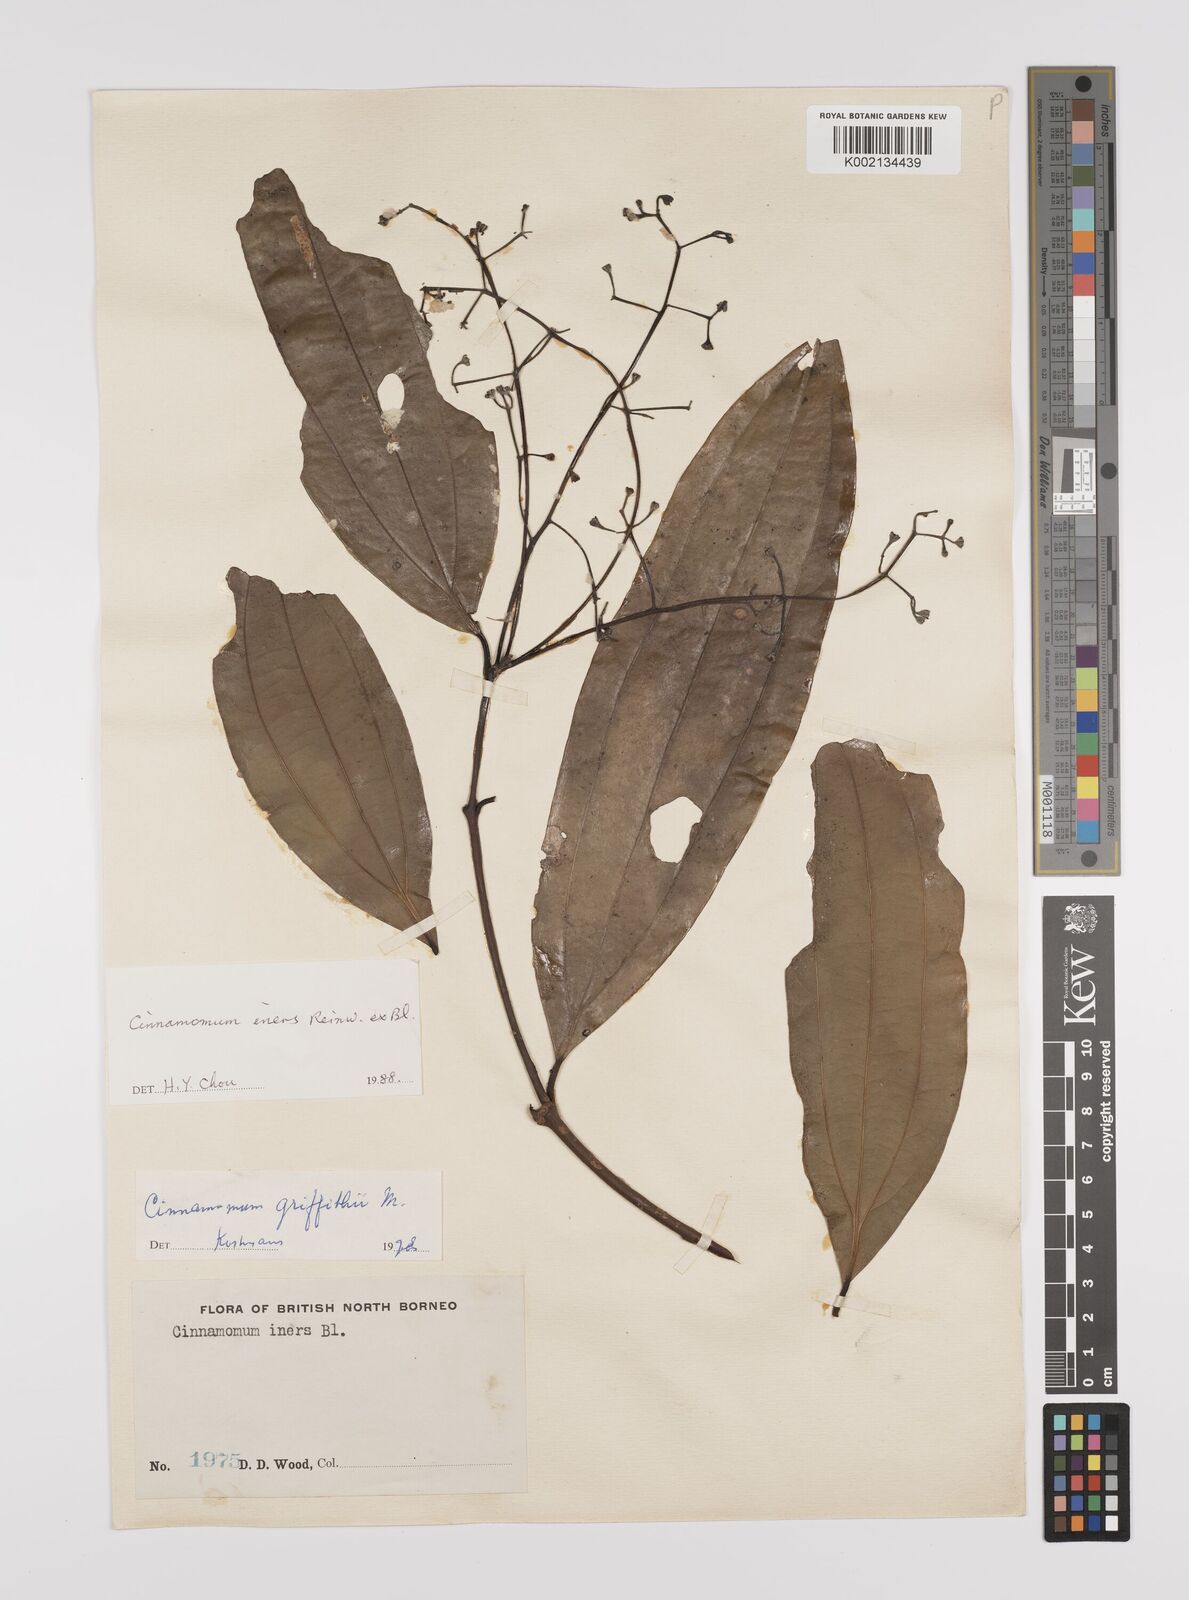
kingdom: Plantae
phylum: Tracheophyta
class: Magnoliopsida
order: Laurales
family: Lauraceae
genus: Cinnamomum
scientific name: Cinnamomum iners
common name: Wild cinnamon
